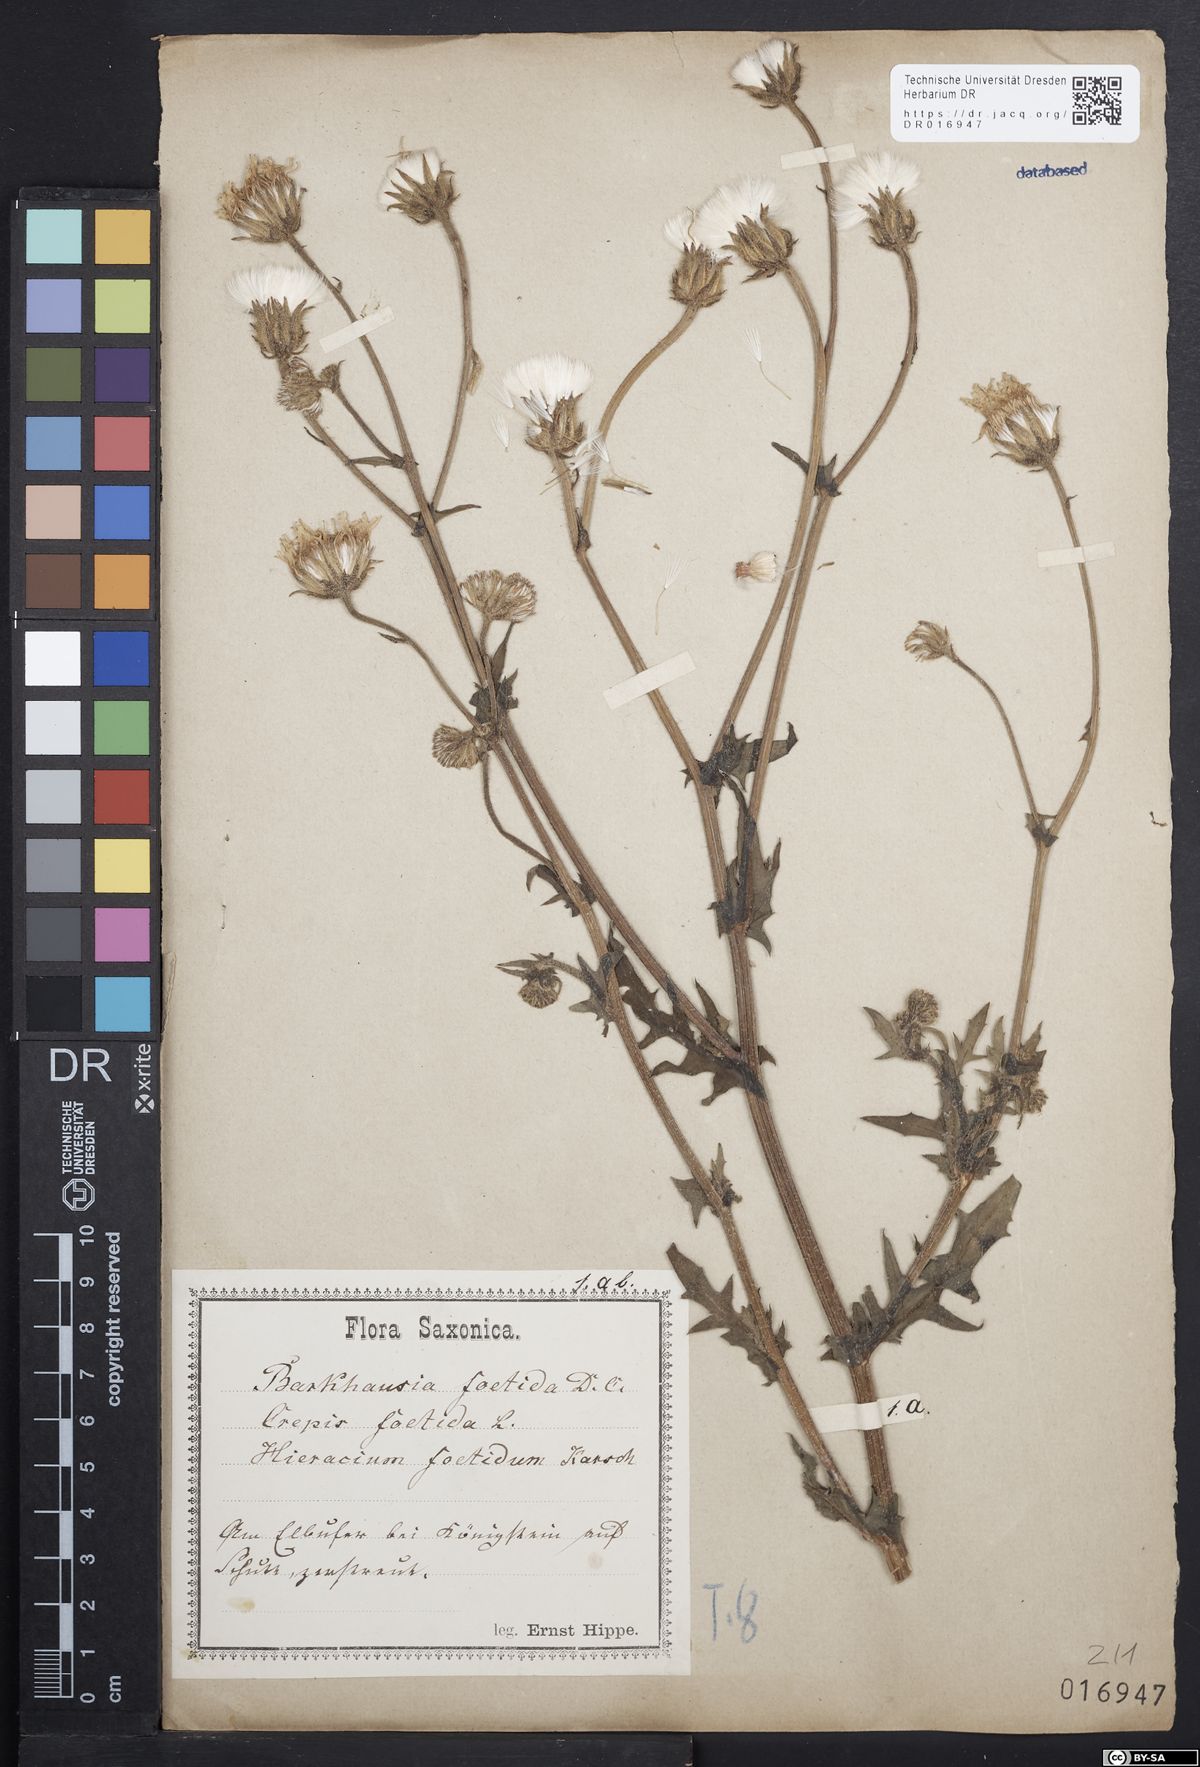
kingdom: Plantae
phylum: Tracheophyta
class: Magnoliopsida
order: Asterales
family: Asteraceae
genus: Crepis
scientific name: Crepis foetida
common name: Stinking hawk's-beard
